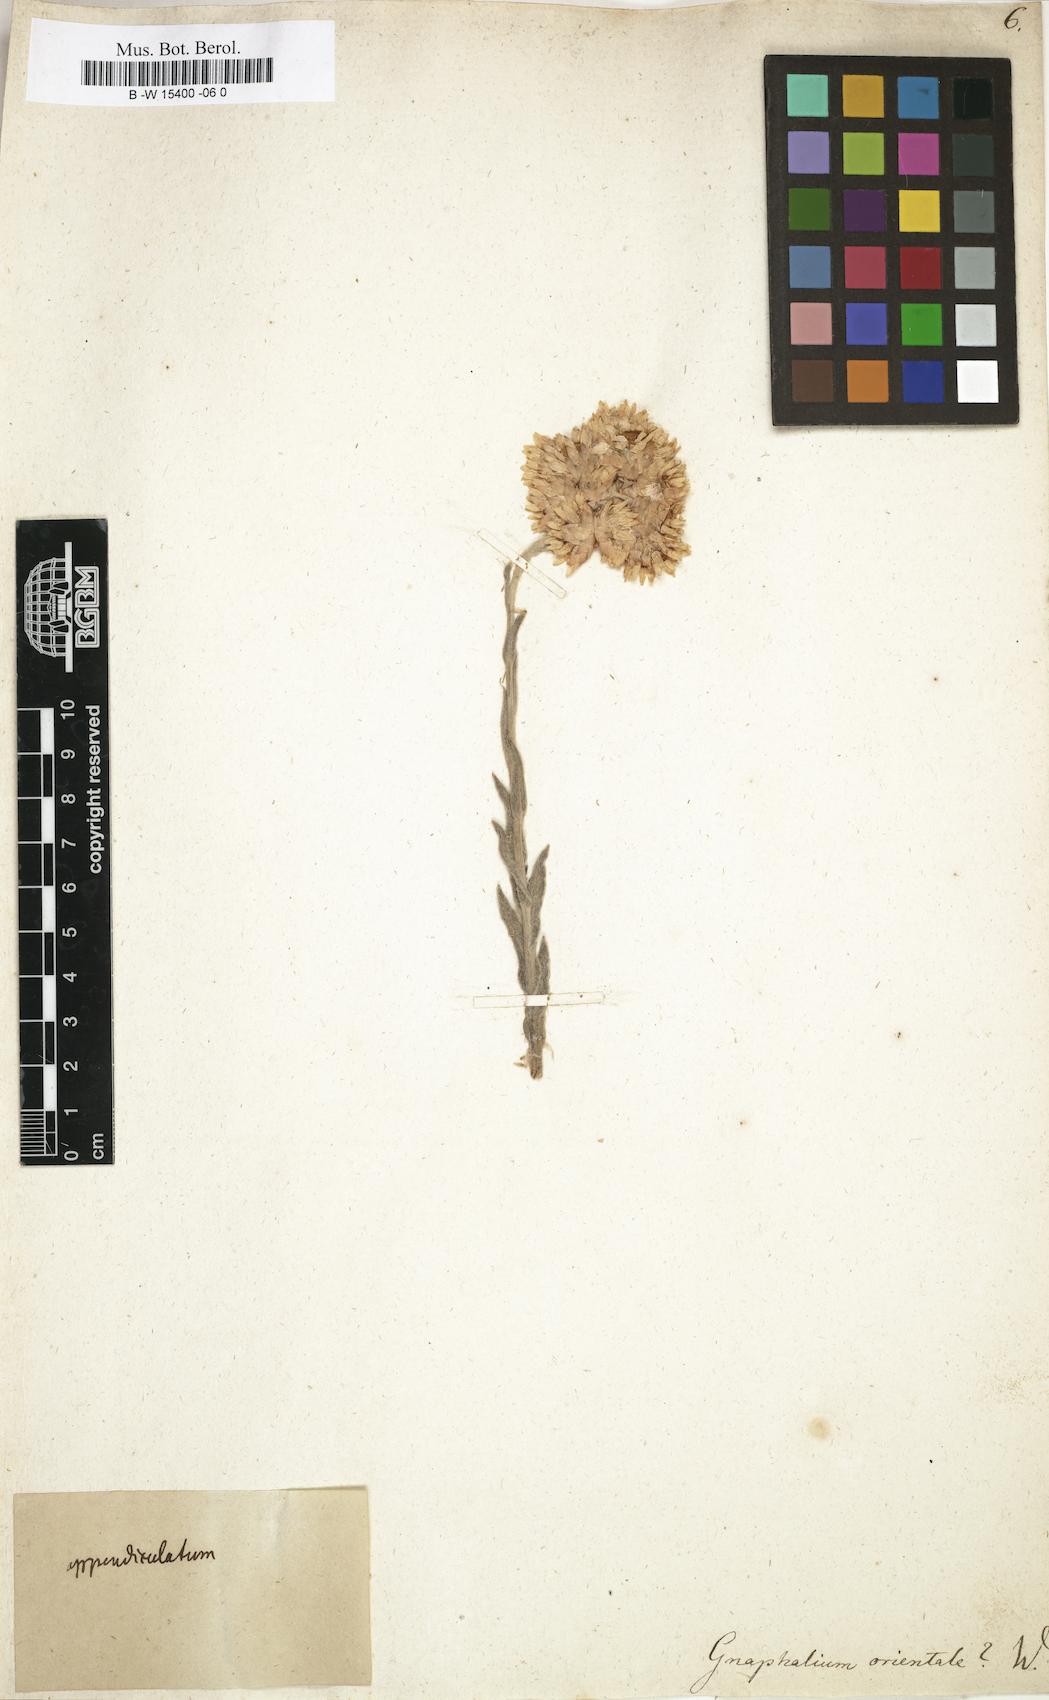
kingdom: Plantae
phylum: Tracheophyta
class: Magnoliopsida
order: Asterales
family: Asteraceae
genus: Helichrysum
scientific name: Helichrysum orientale
